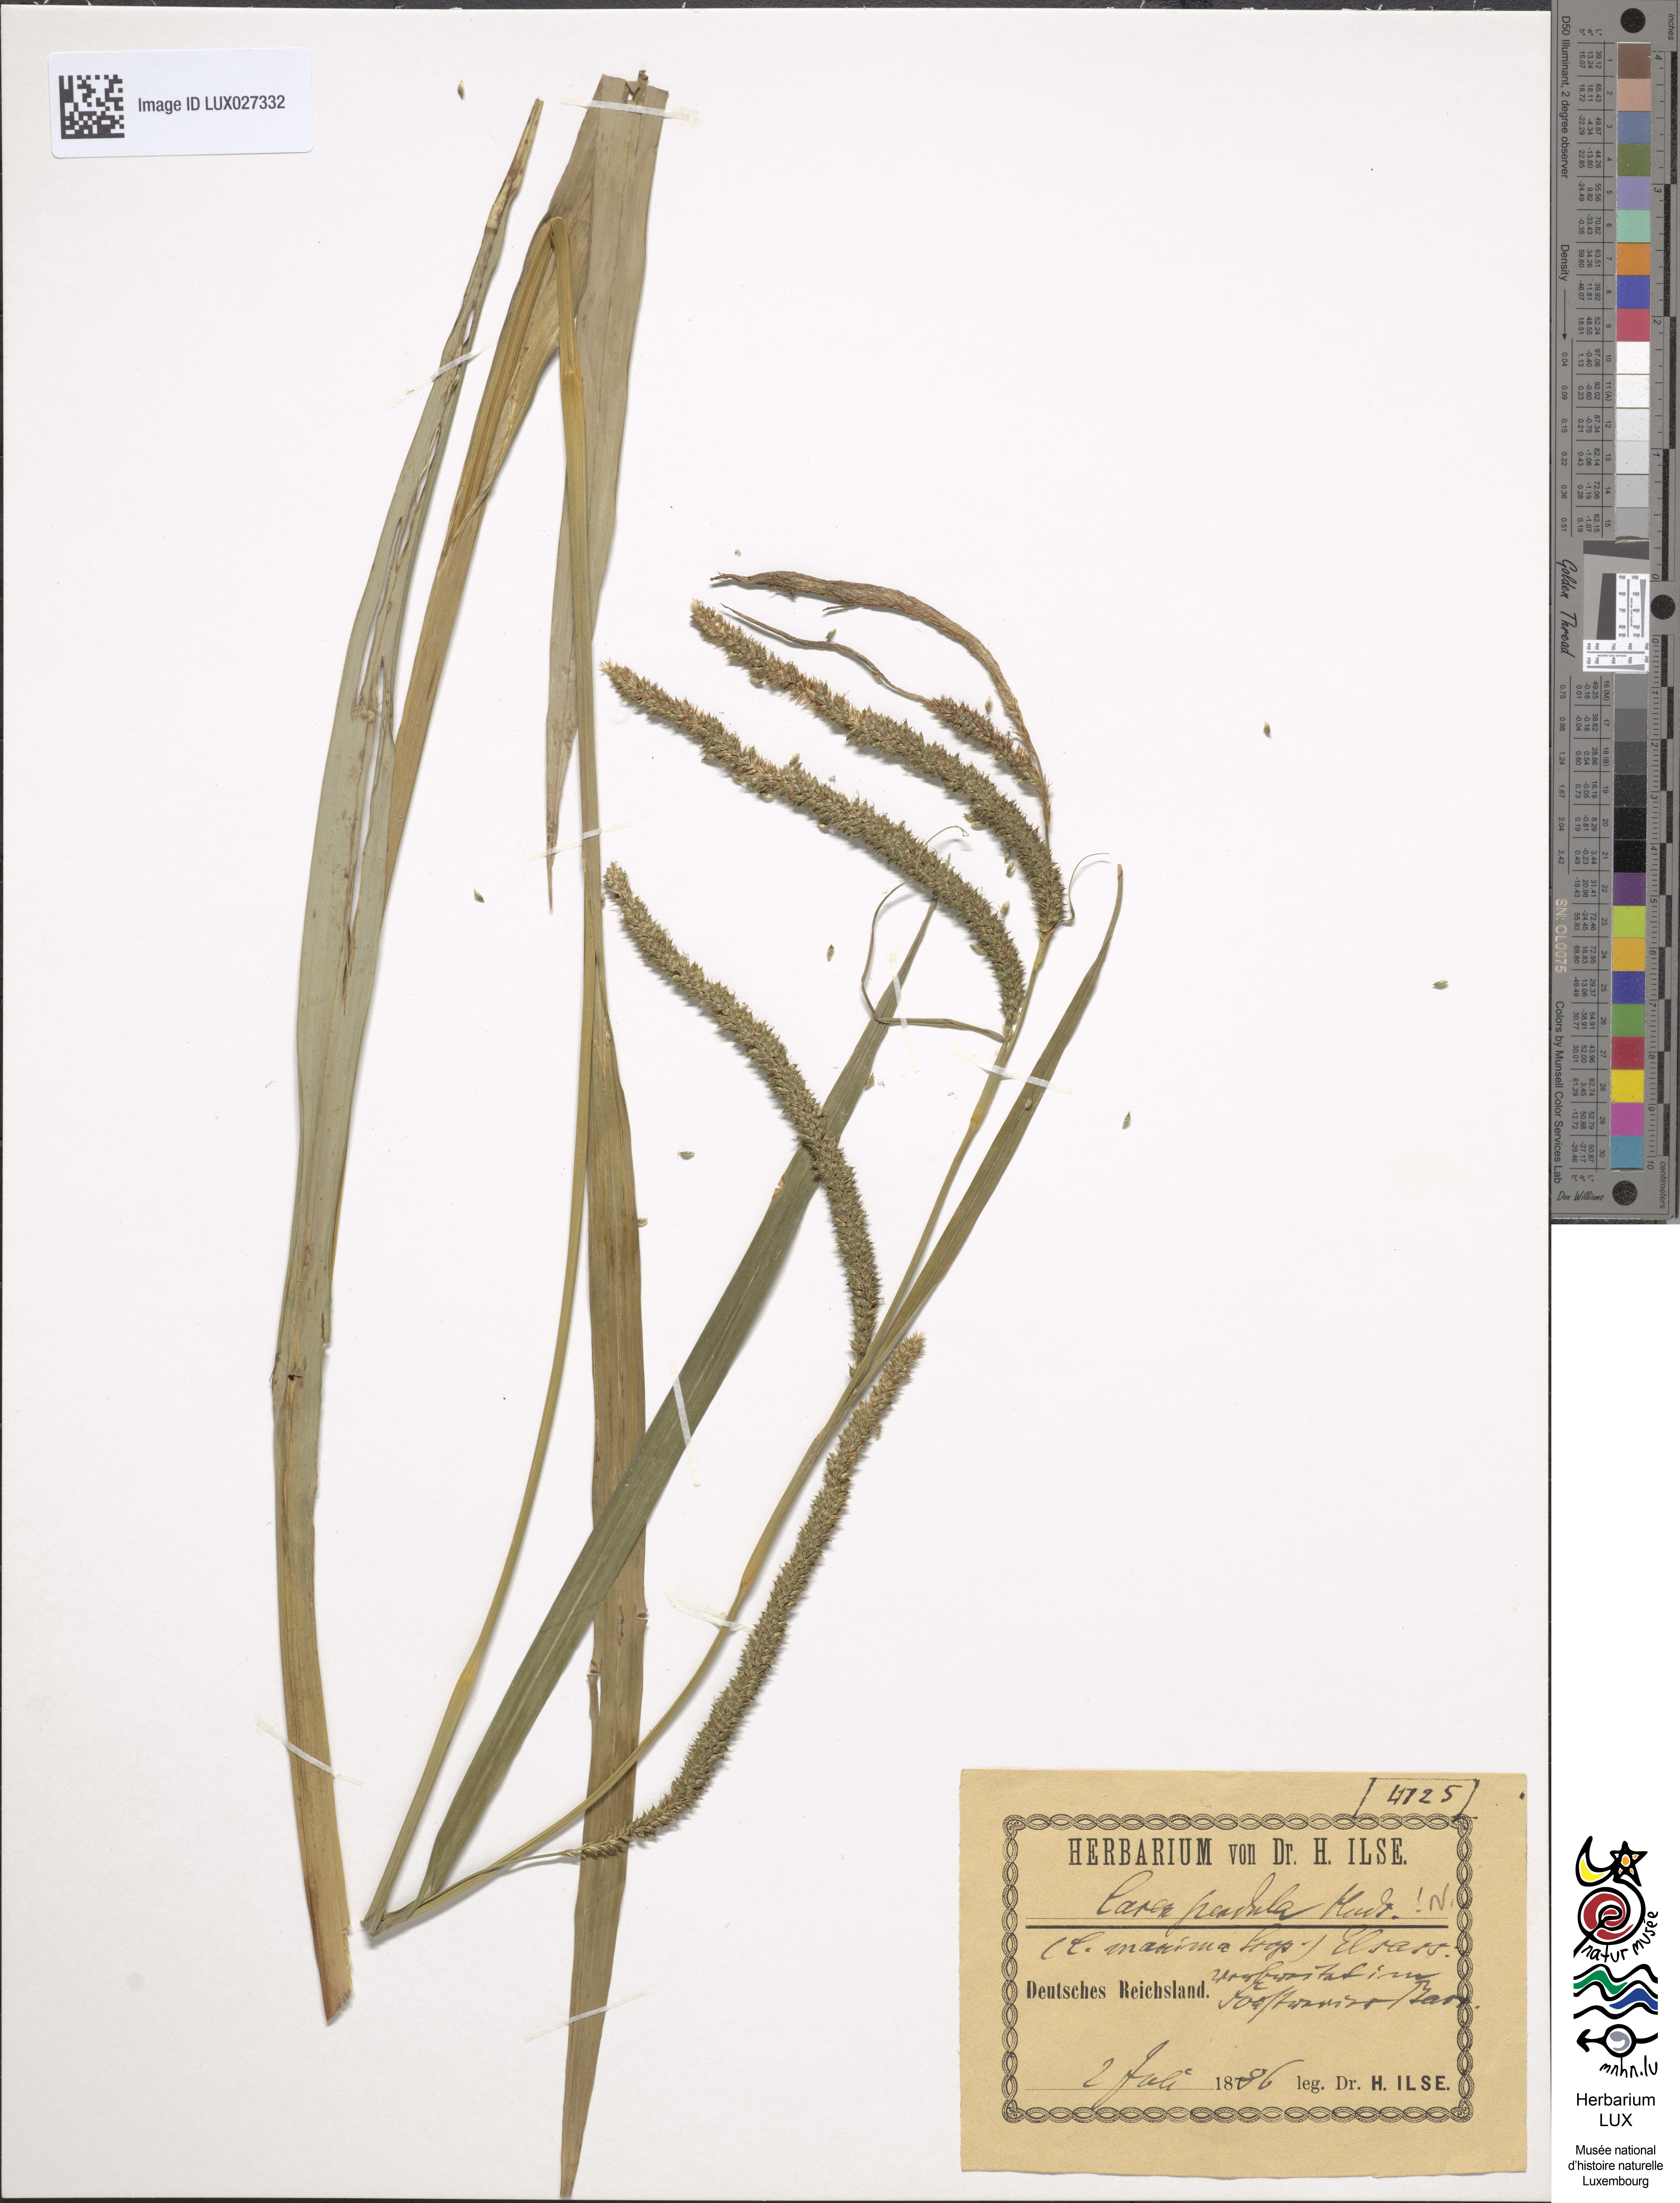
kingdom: Plantae
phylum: Tracheophyta
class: Liliopsida
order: Poales
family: Cyperaceae
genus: Carex
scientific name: Carex pendula
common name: Pendulous sedge
